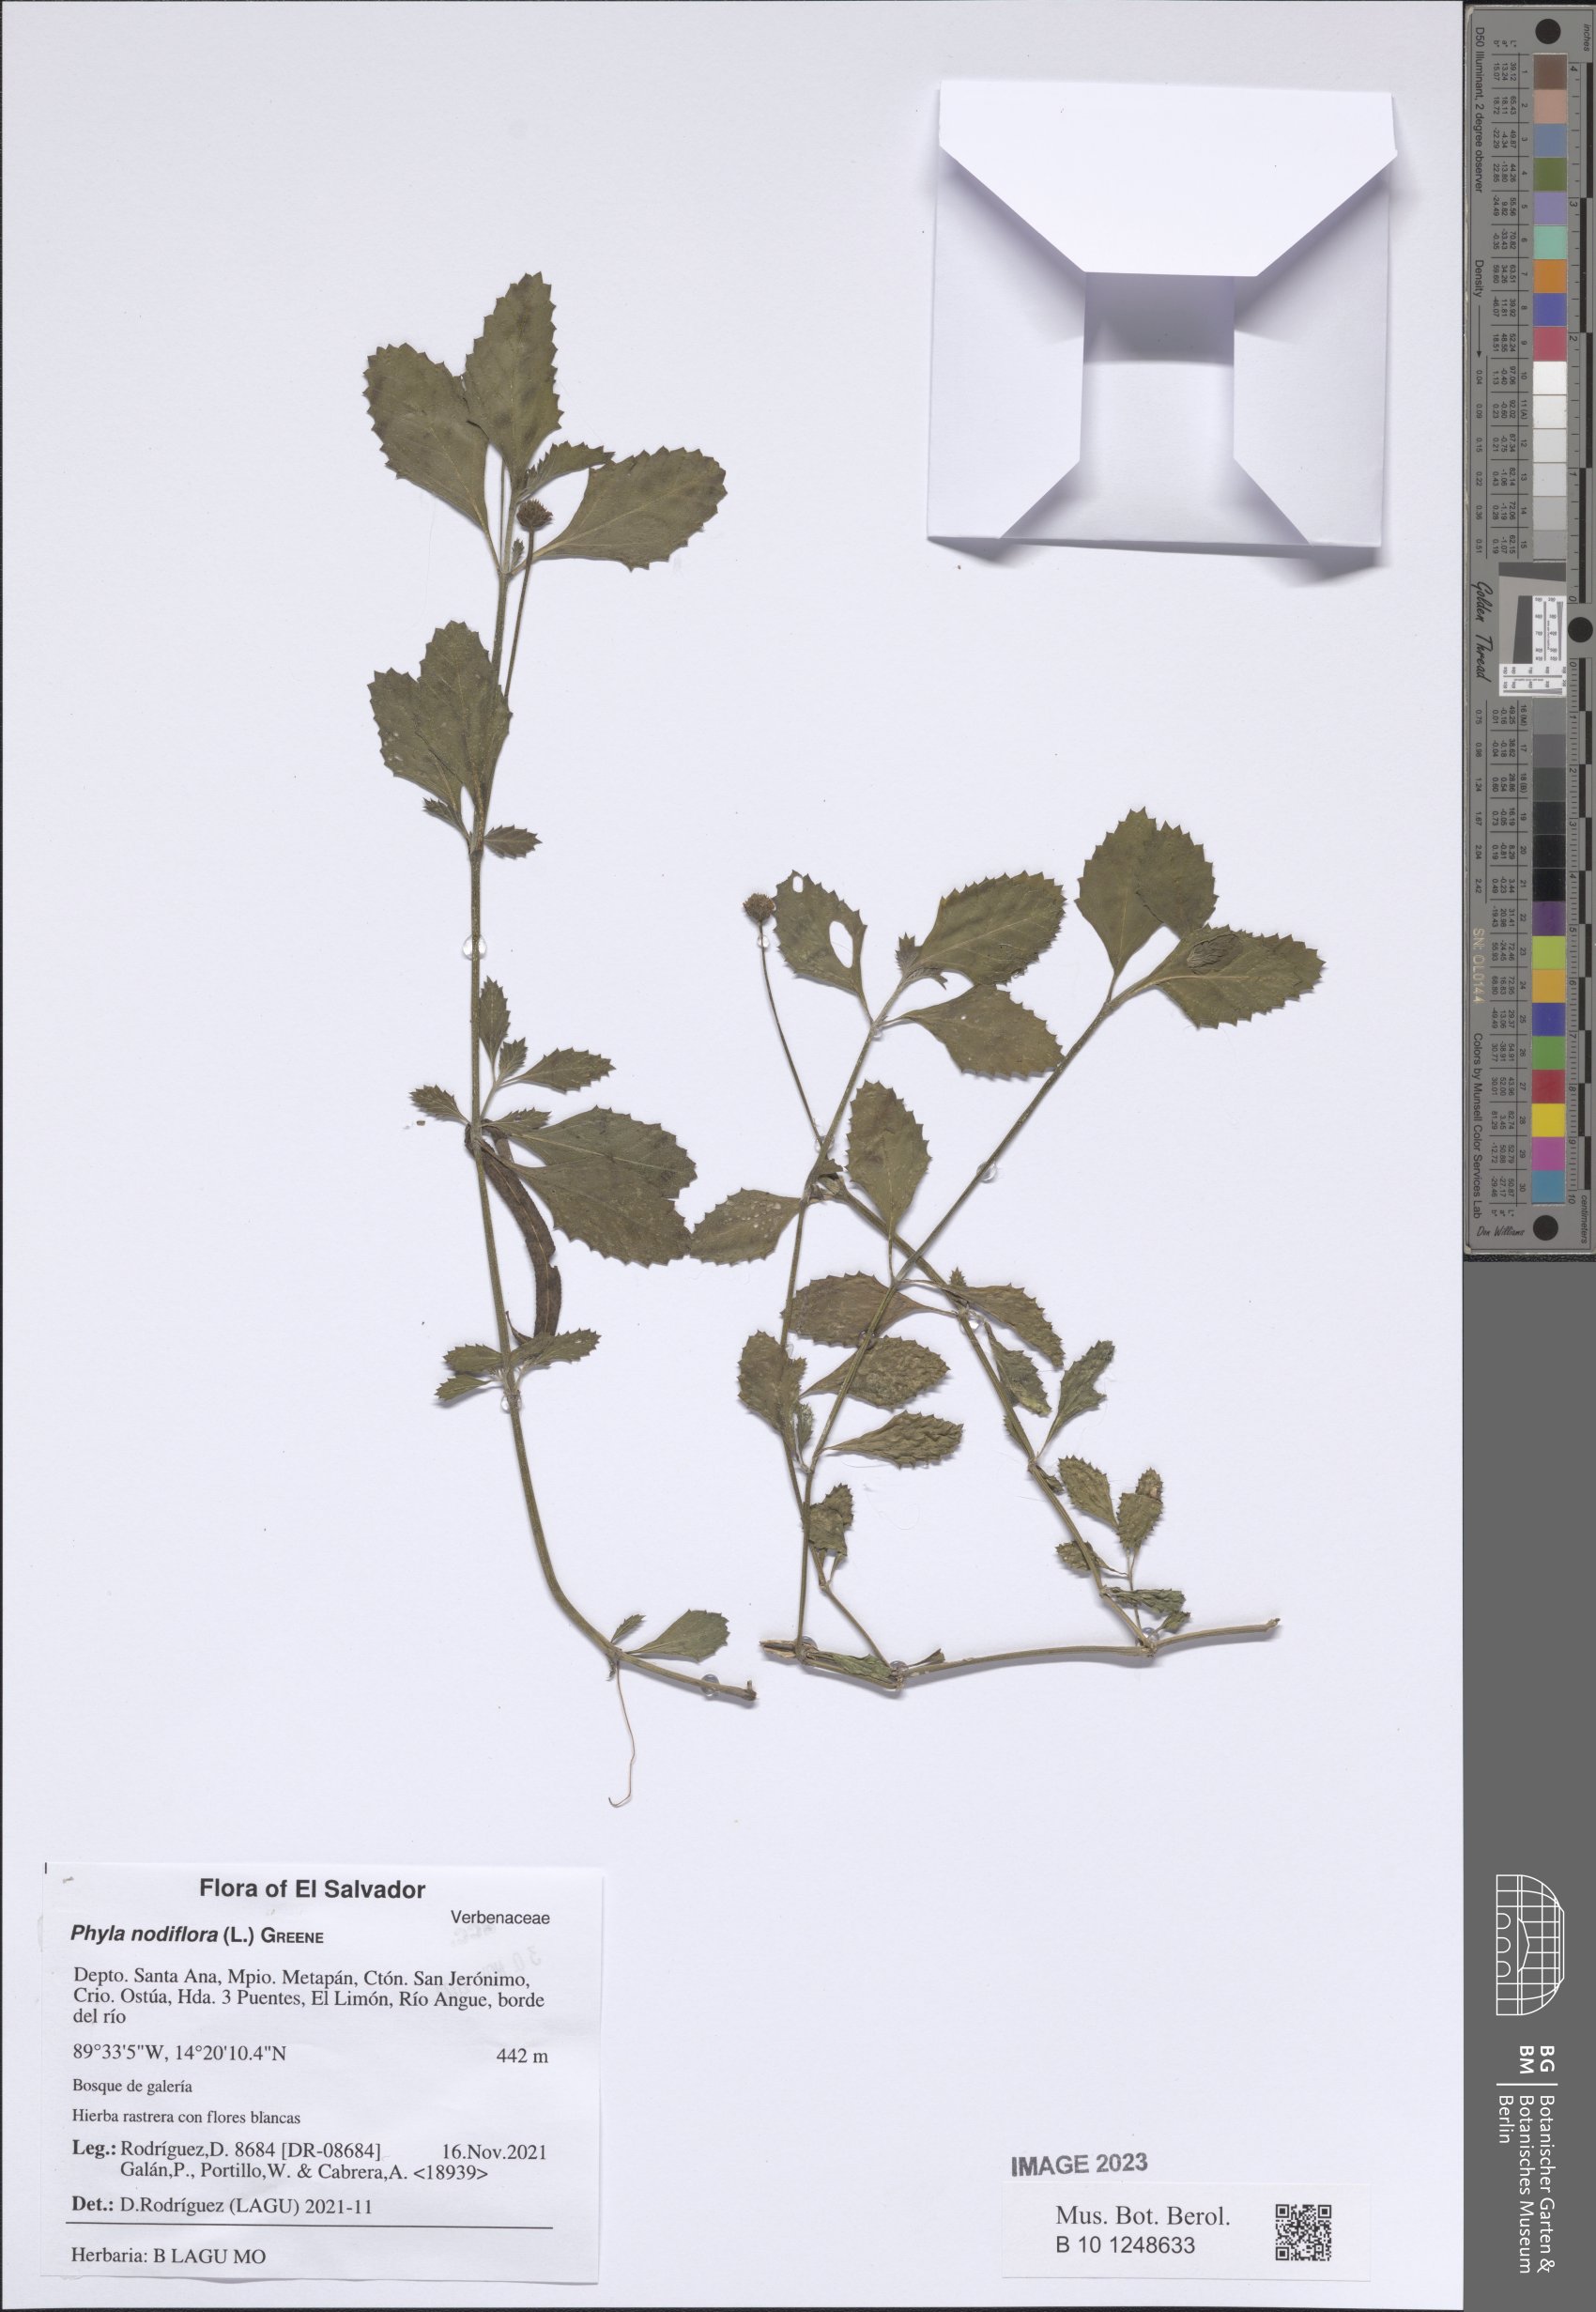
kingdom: Plantae
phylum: Tracheophyta
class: Magnoliopsida
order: Lamiales
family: Verbenaceae
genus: Phyla
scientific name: Phyla nodiflora
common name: Frogfruit
